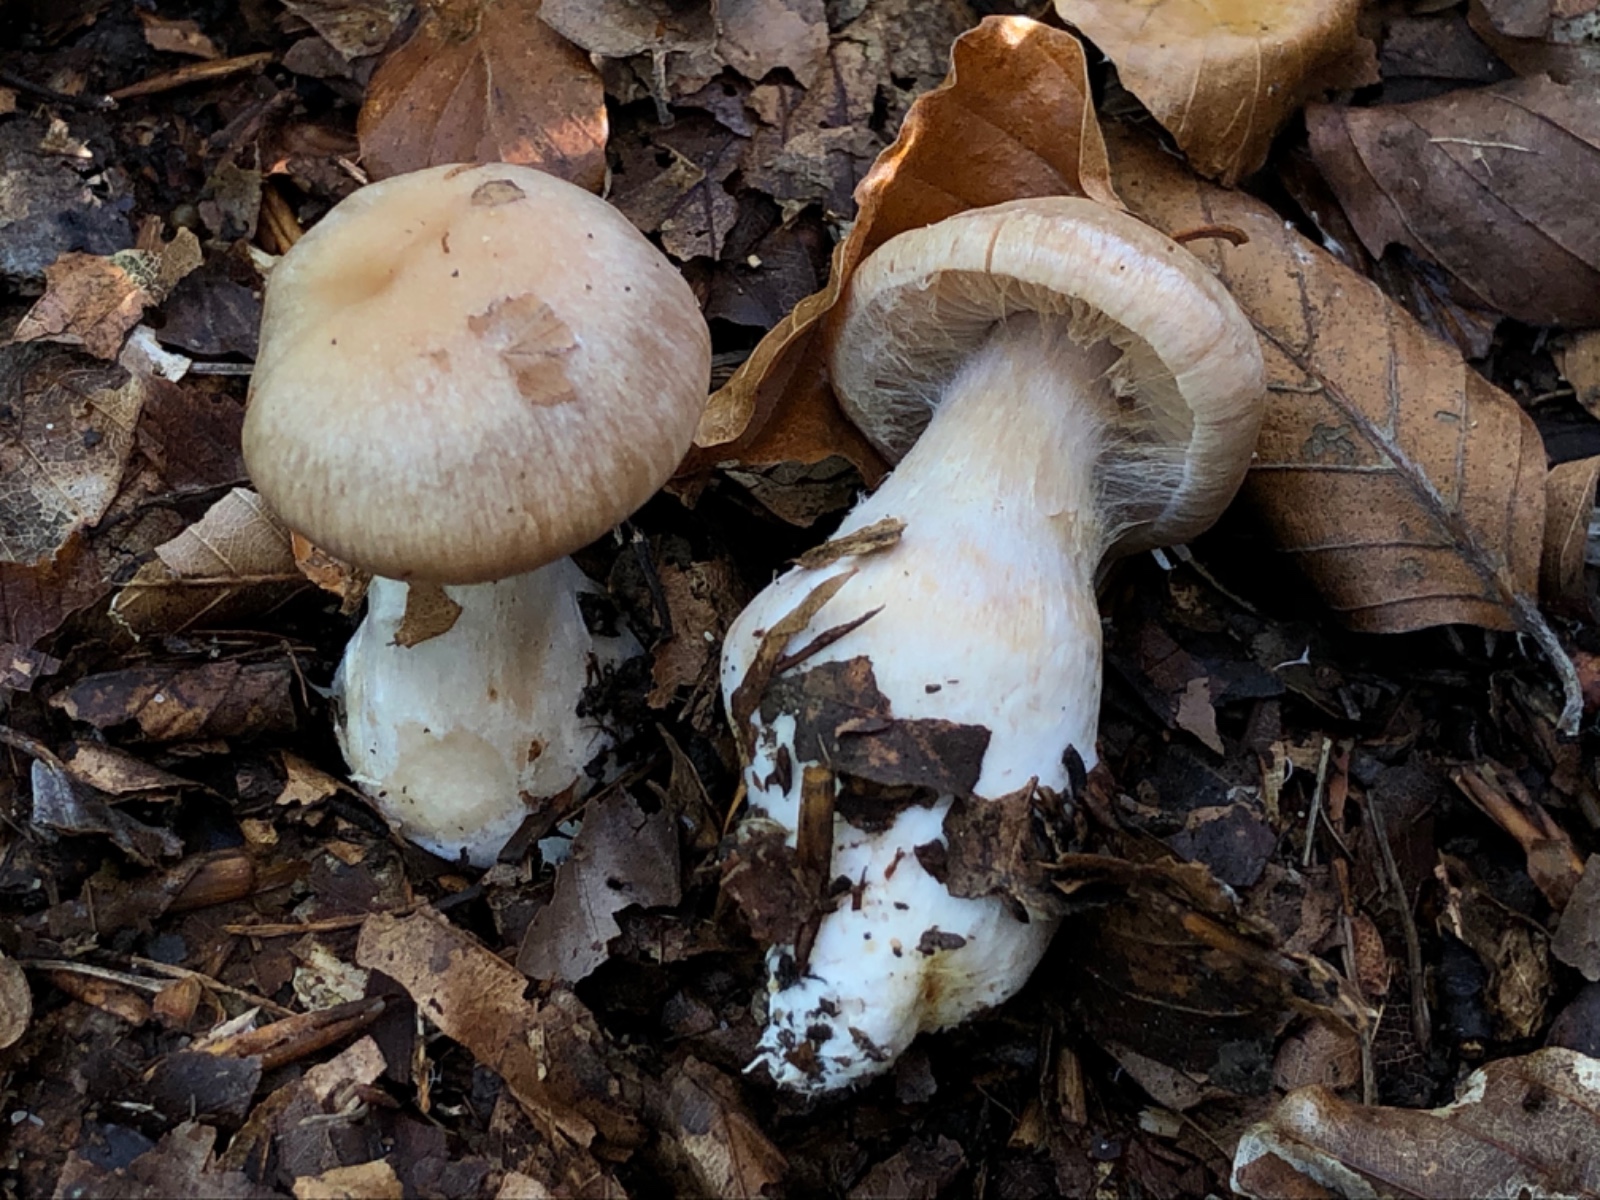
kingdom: Fungi
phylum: Basidiomycota
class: Agaricomycetes
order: Agaricales
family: Cortinariaceae
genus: Cortinarius
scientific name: Cortinarius turgidus
